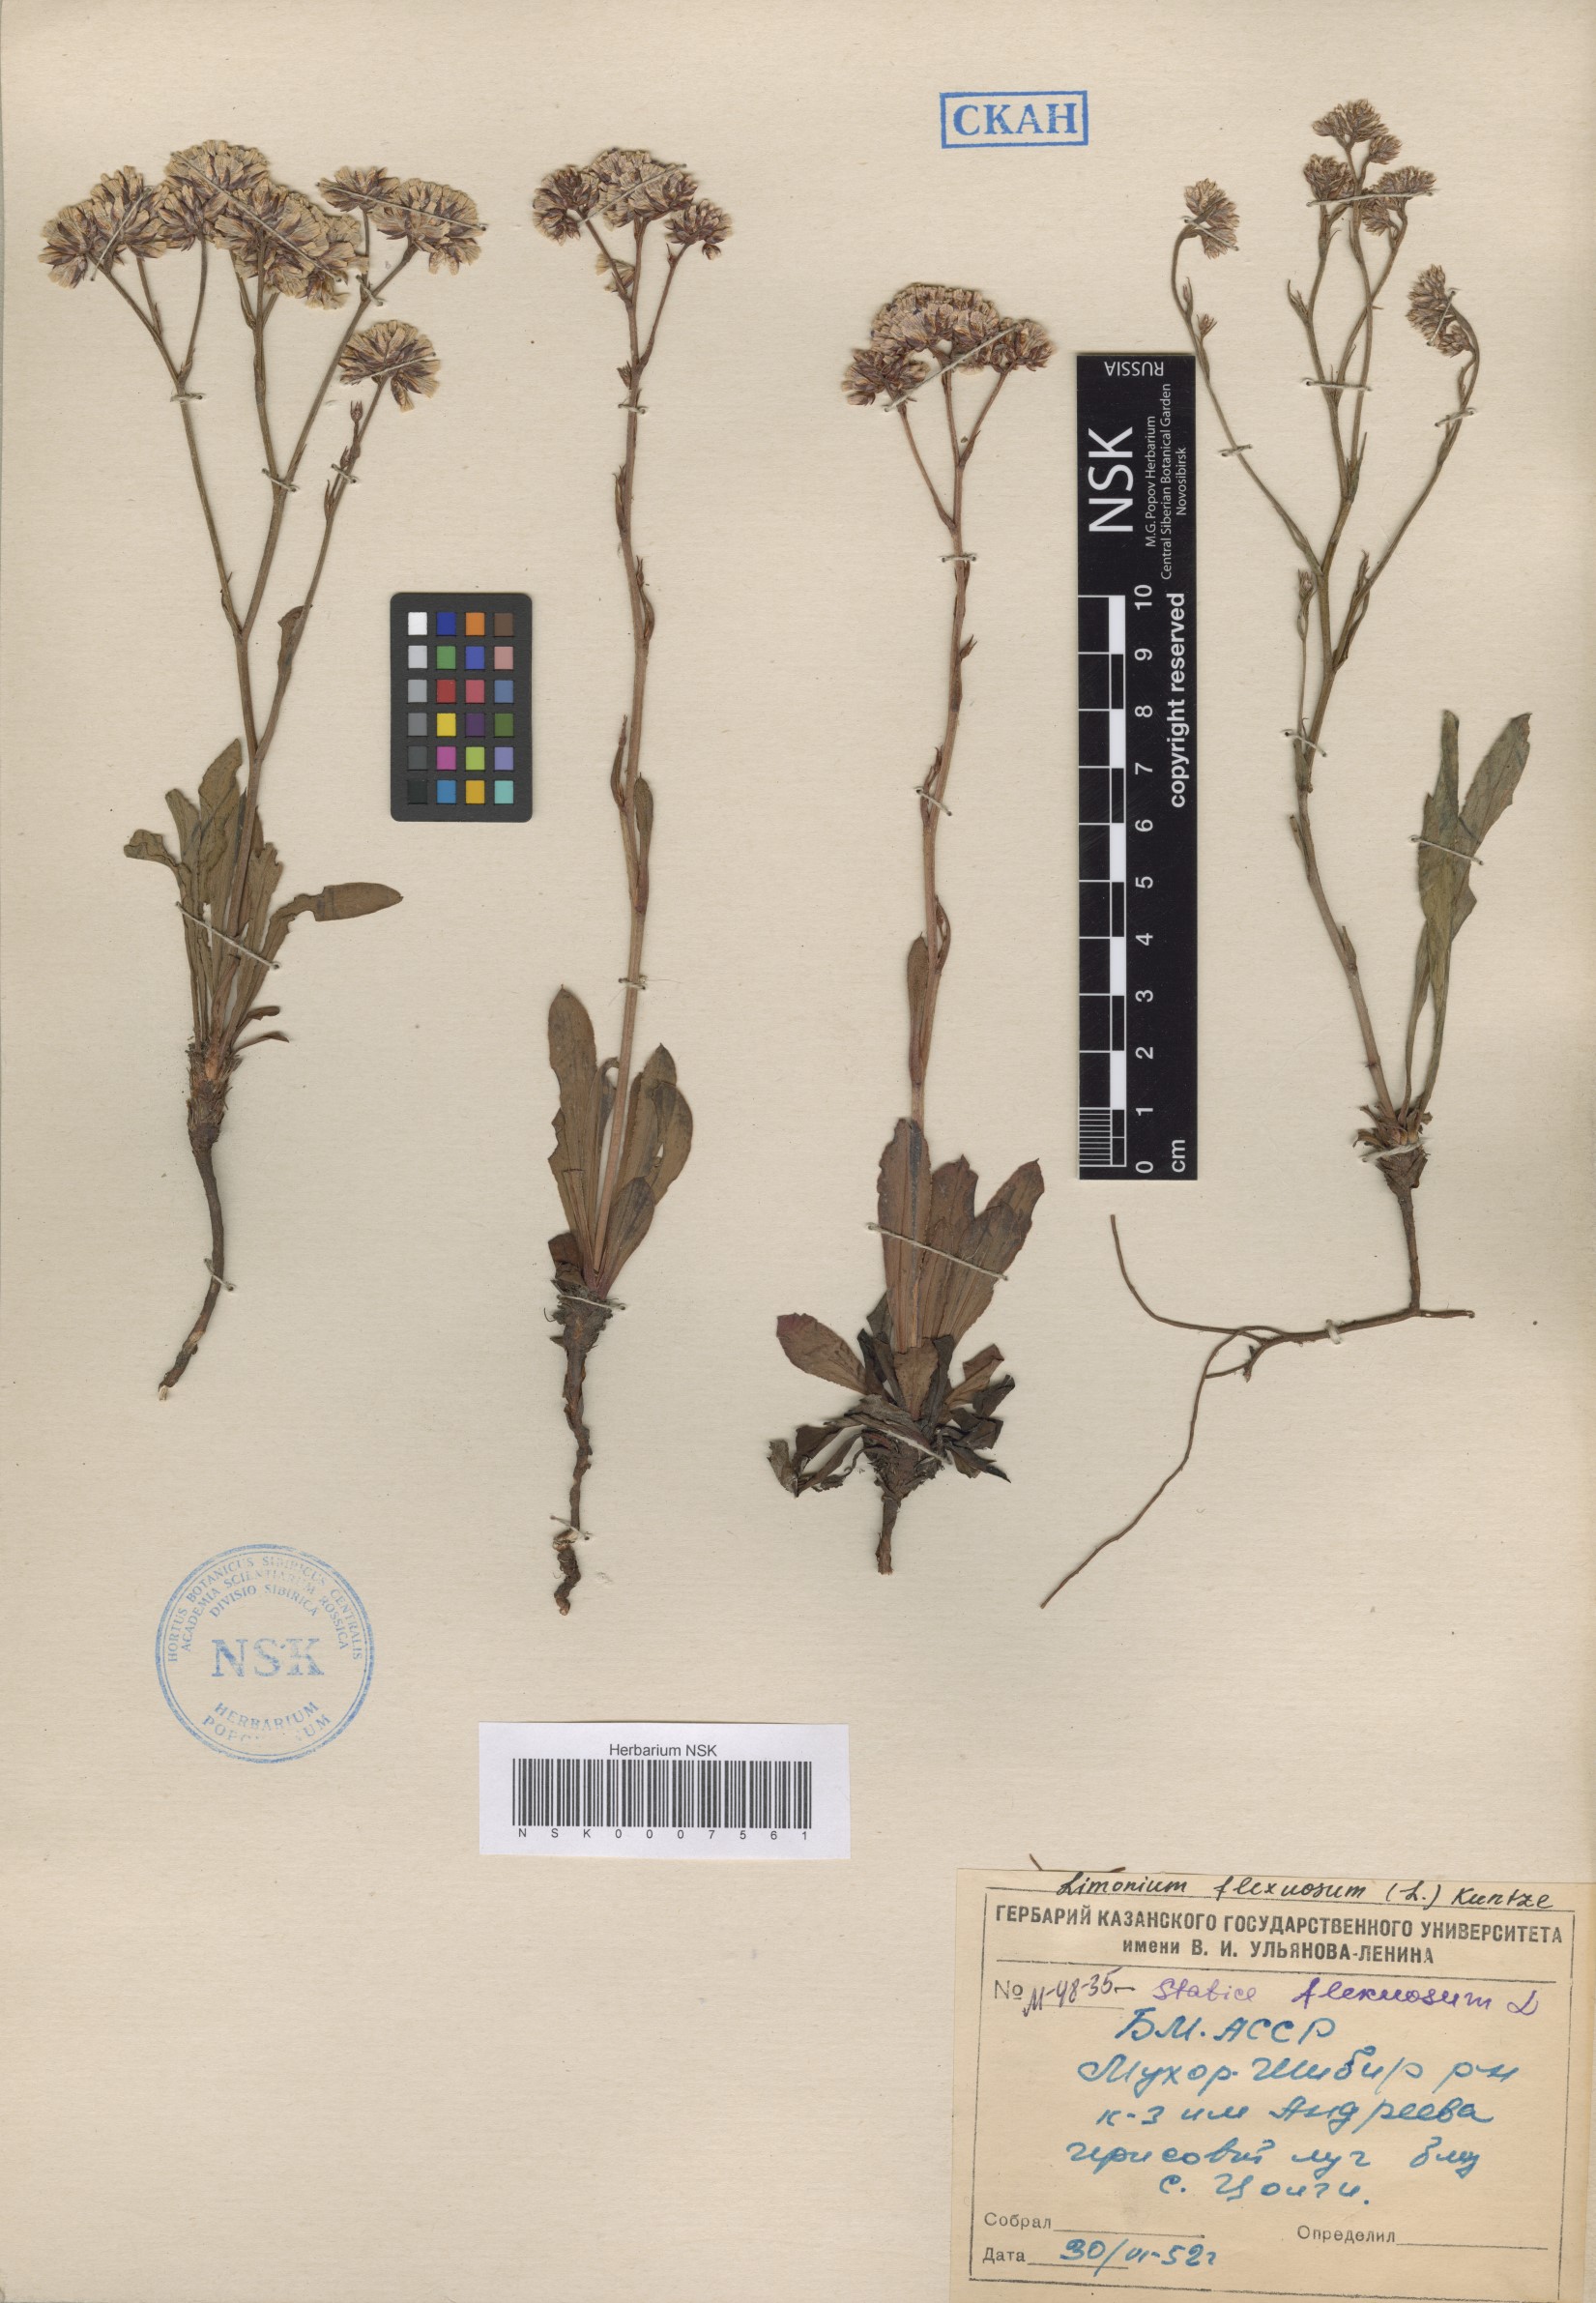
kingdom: Plantae
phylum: Tracheophyta
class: Magnoliopsida
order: Caryophyllales
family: Plumbaginaceae
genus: Limonium
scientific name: Limonium flexuosum
